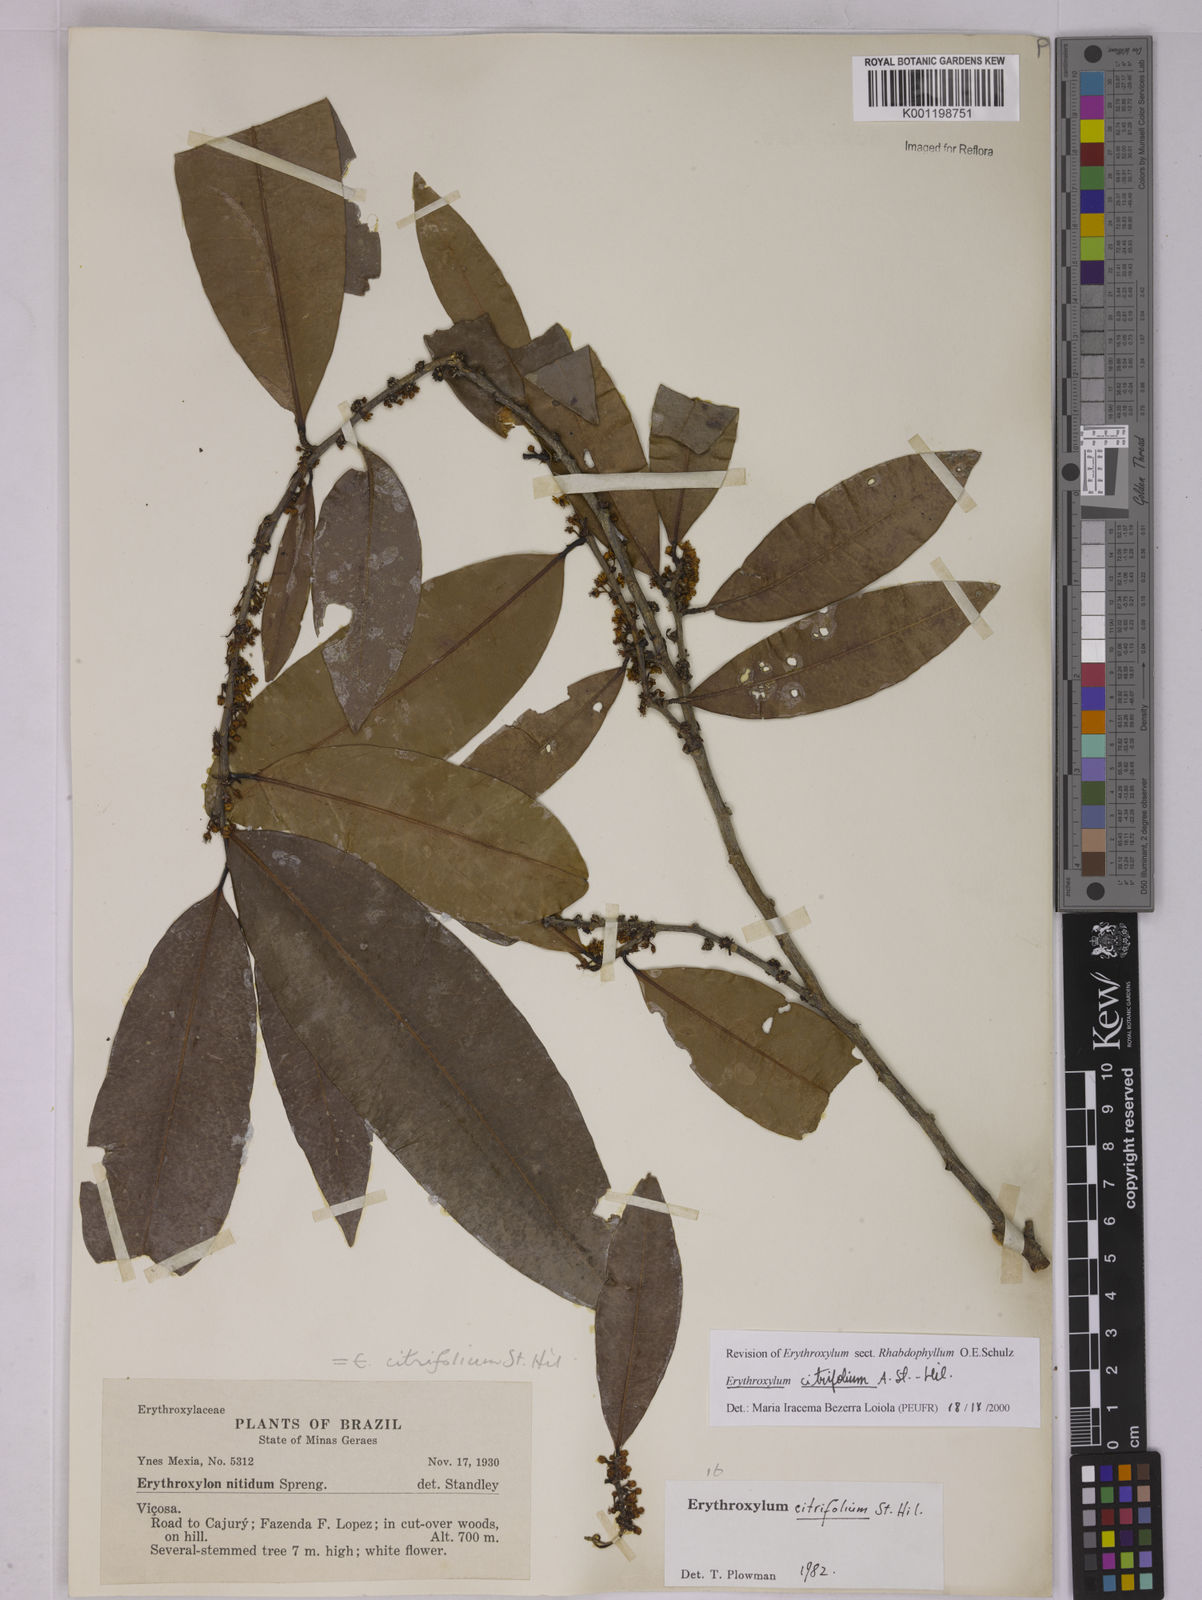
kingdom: Plantae
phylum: Tracheophyta
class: Magnoliopsida
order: Malpighiales
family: Erythroxylaceae
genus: Erythroxylum
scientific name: Erythroxylum citrifolium
